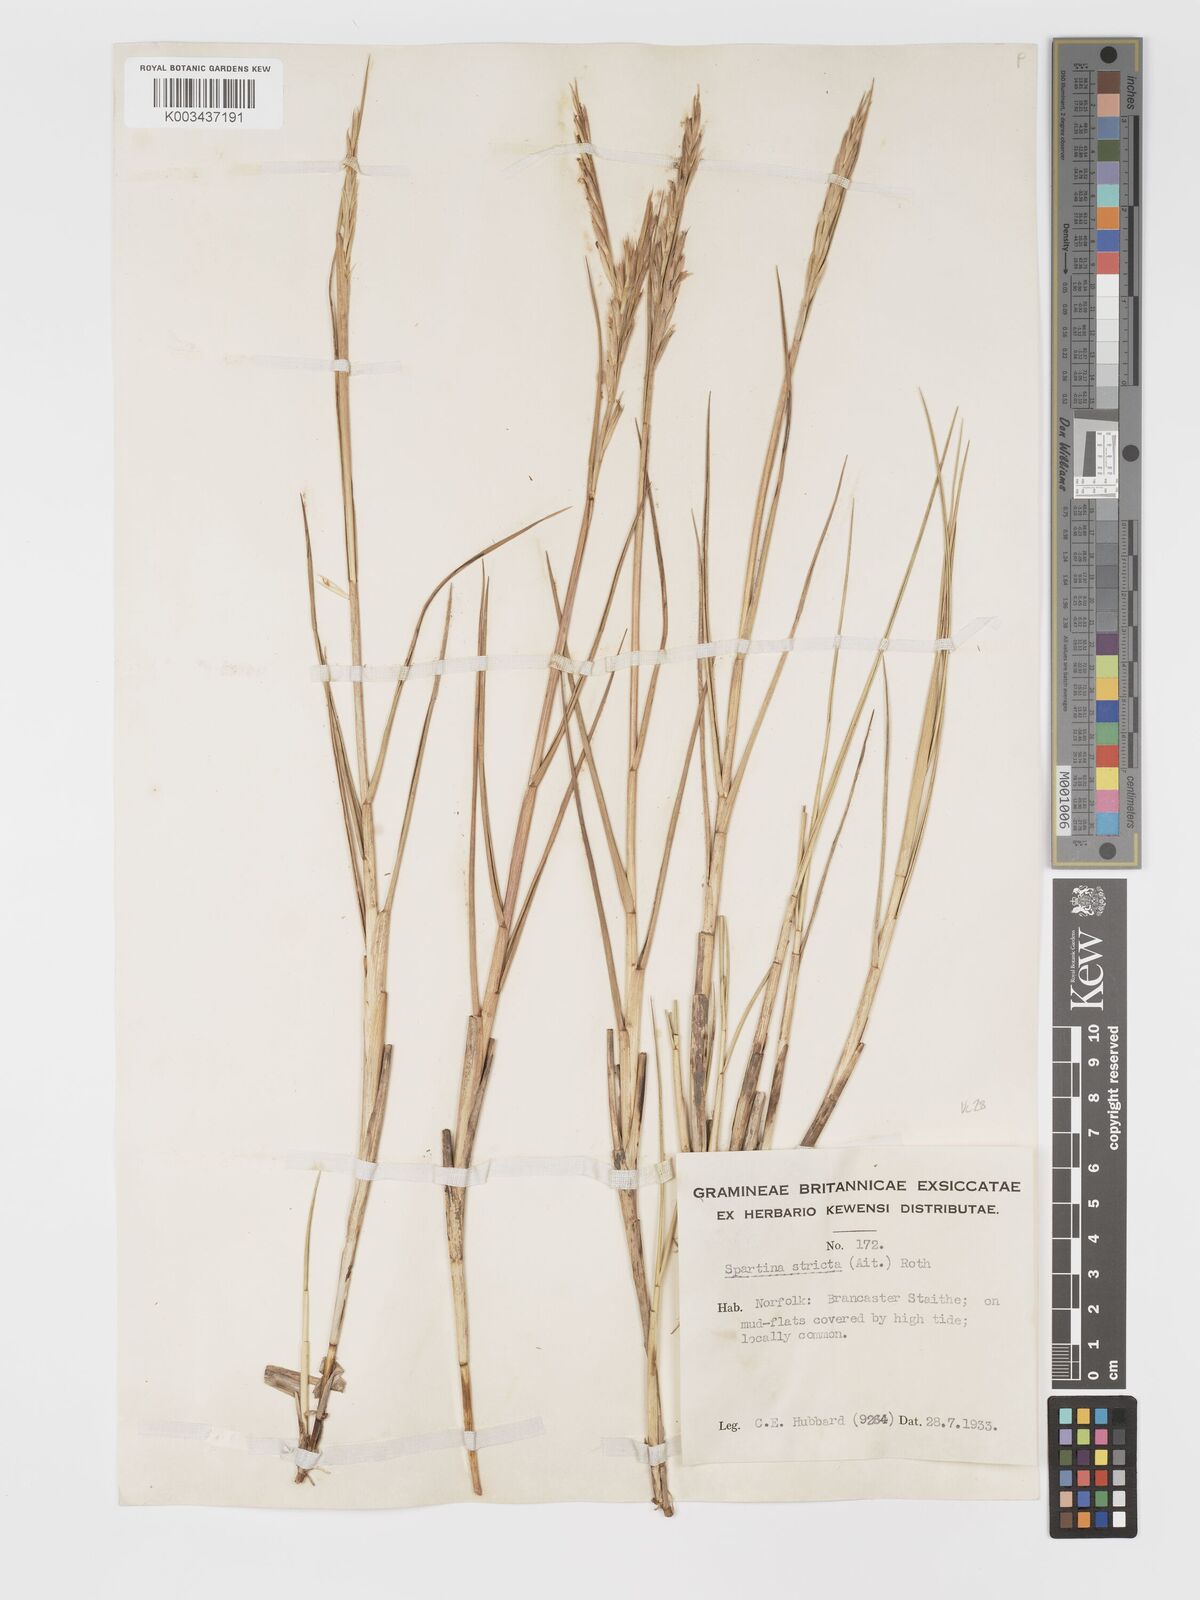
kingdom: Plantae
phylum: Tracheophyta
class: Liliopsida
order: Poales
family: Poaceae
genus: Sporobolus
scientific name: Sporobolus maritimus
